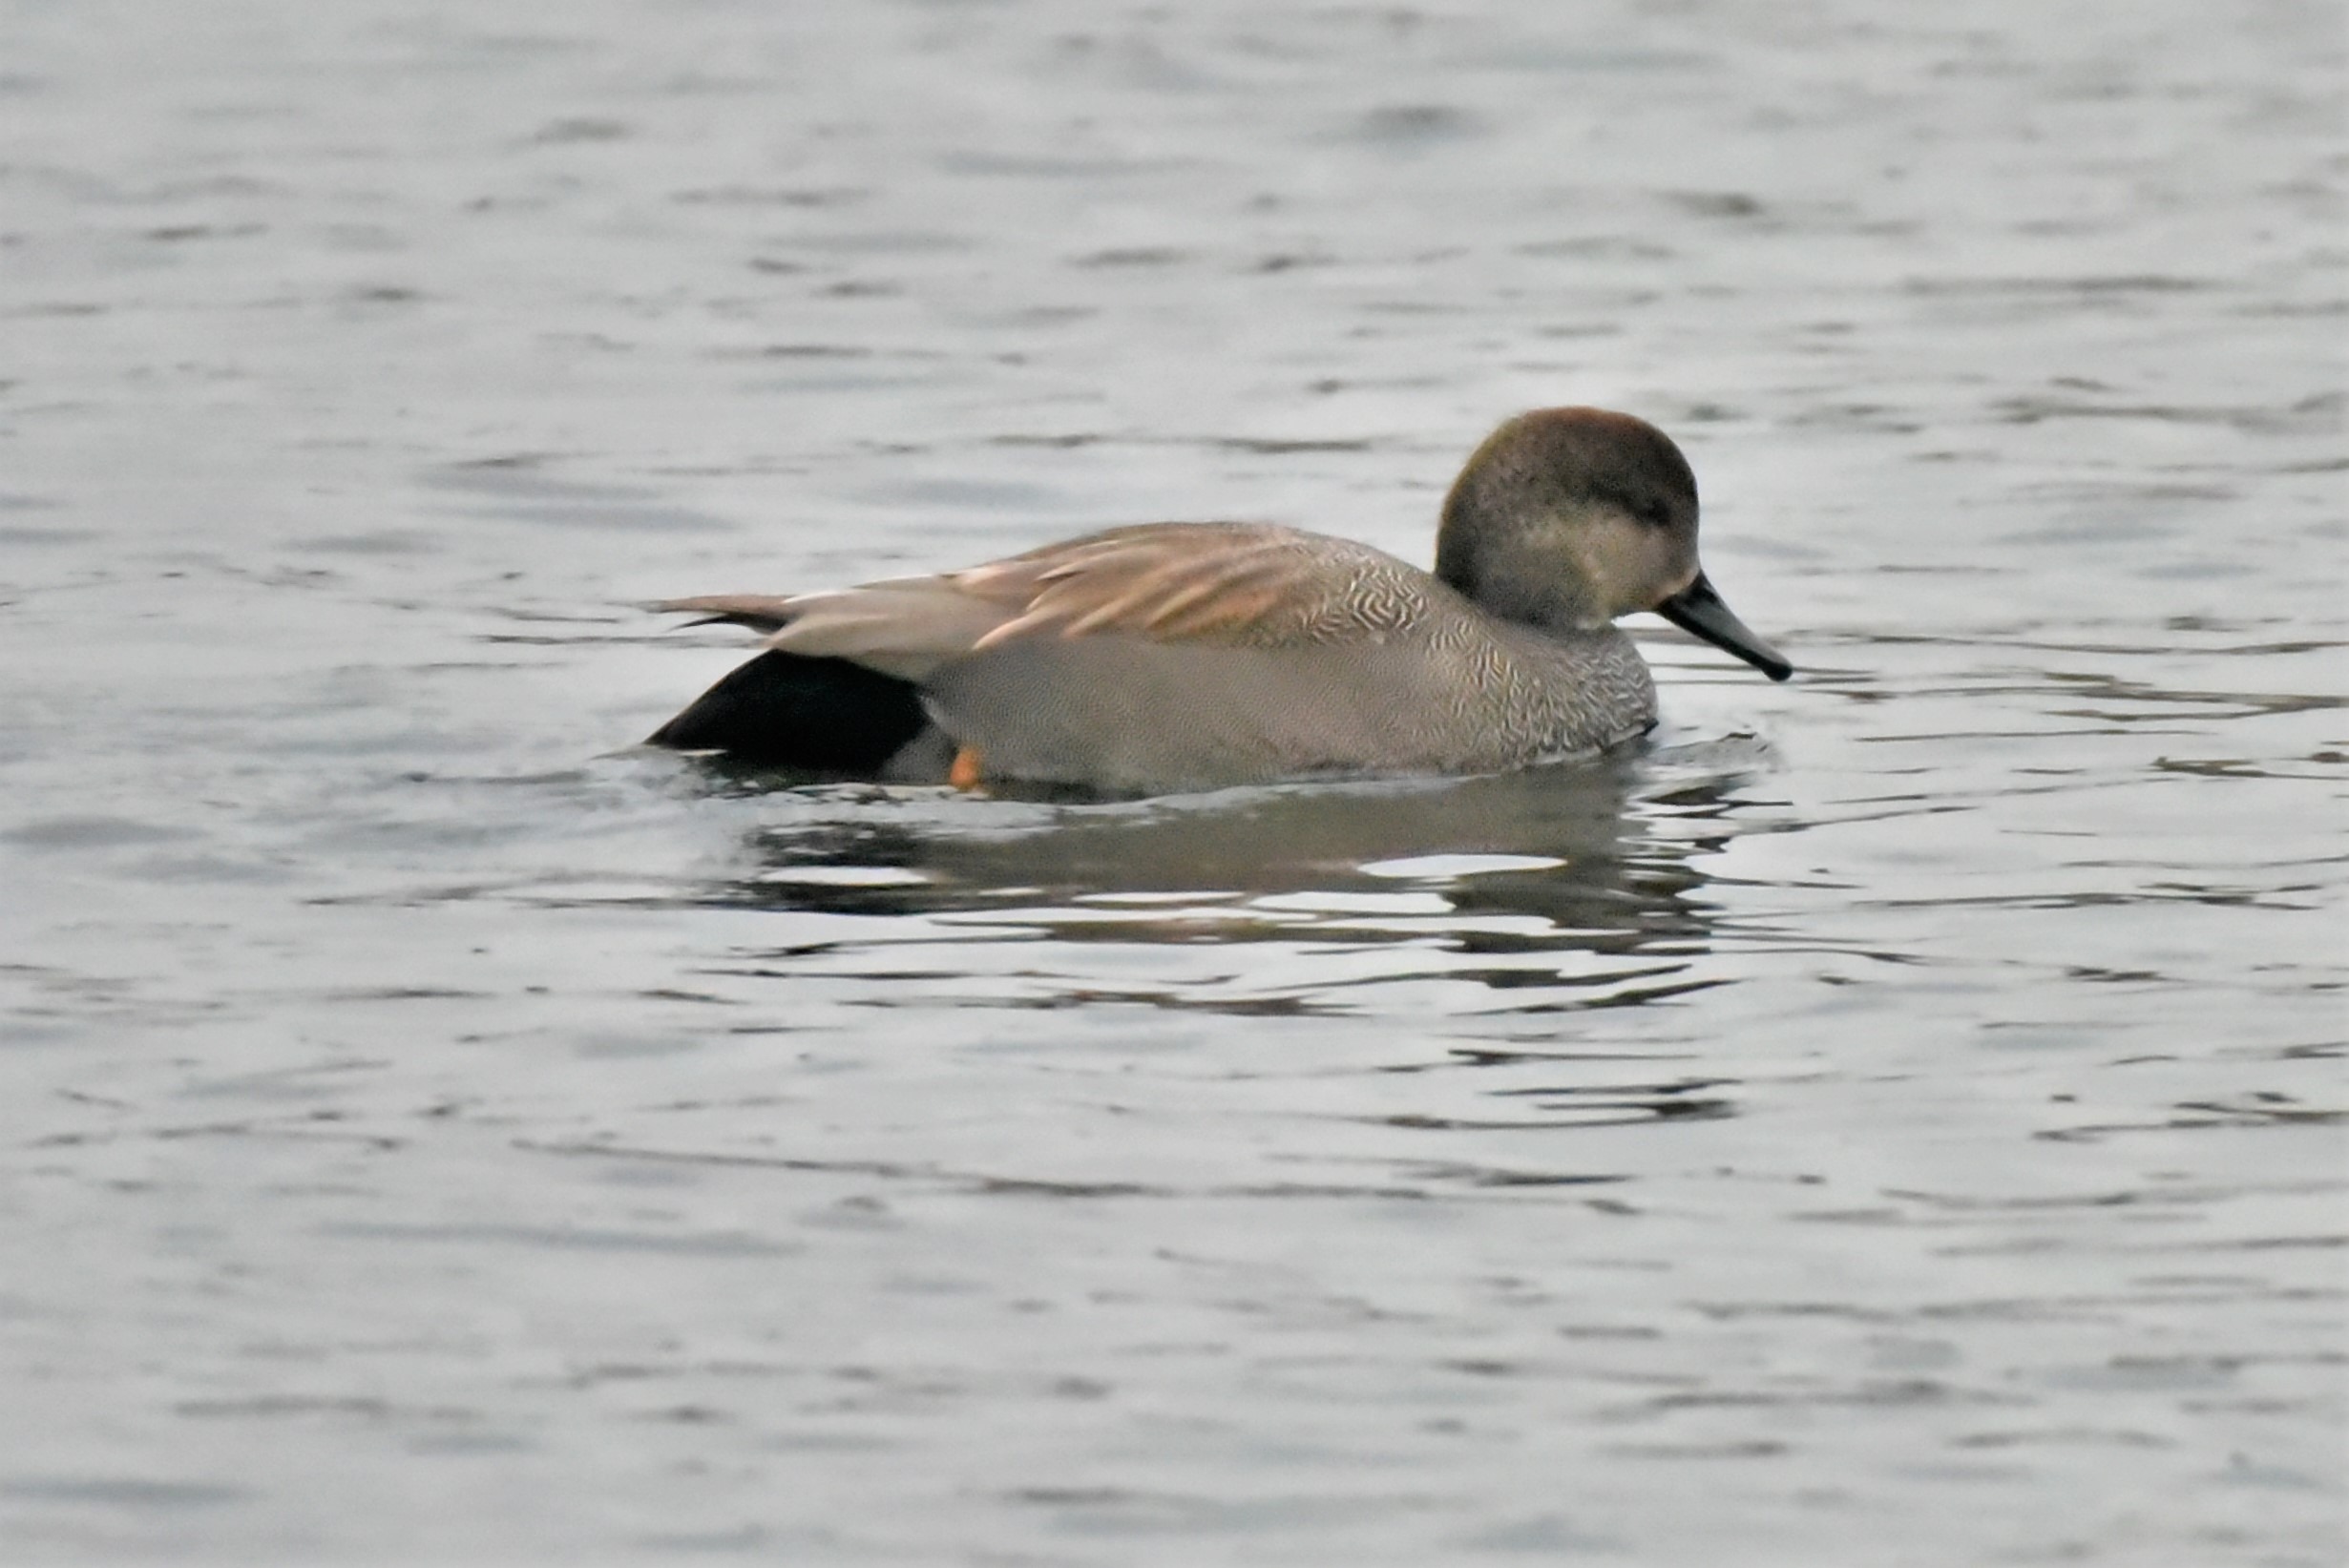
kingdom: Animalia
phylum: Chordata
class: Aves
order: Anseriformes
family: Anatidae
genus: Mareca
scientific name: Mareca strepera
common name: Knarand
